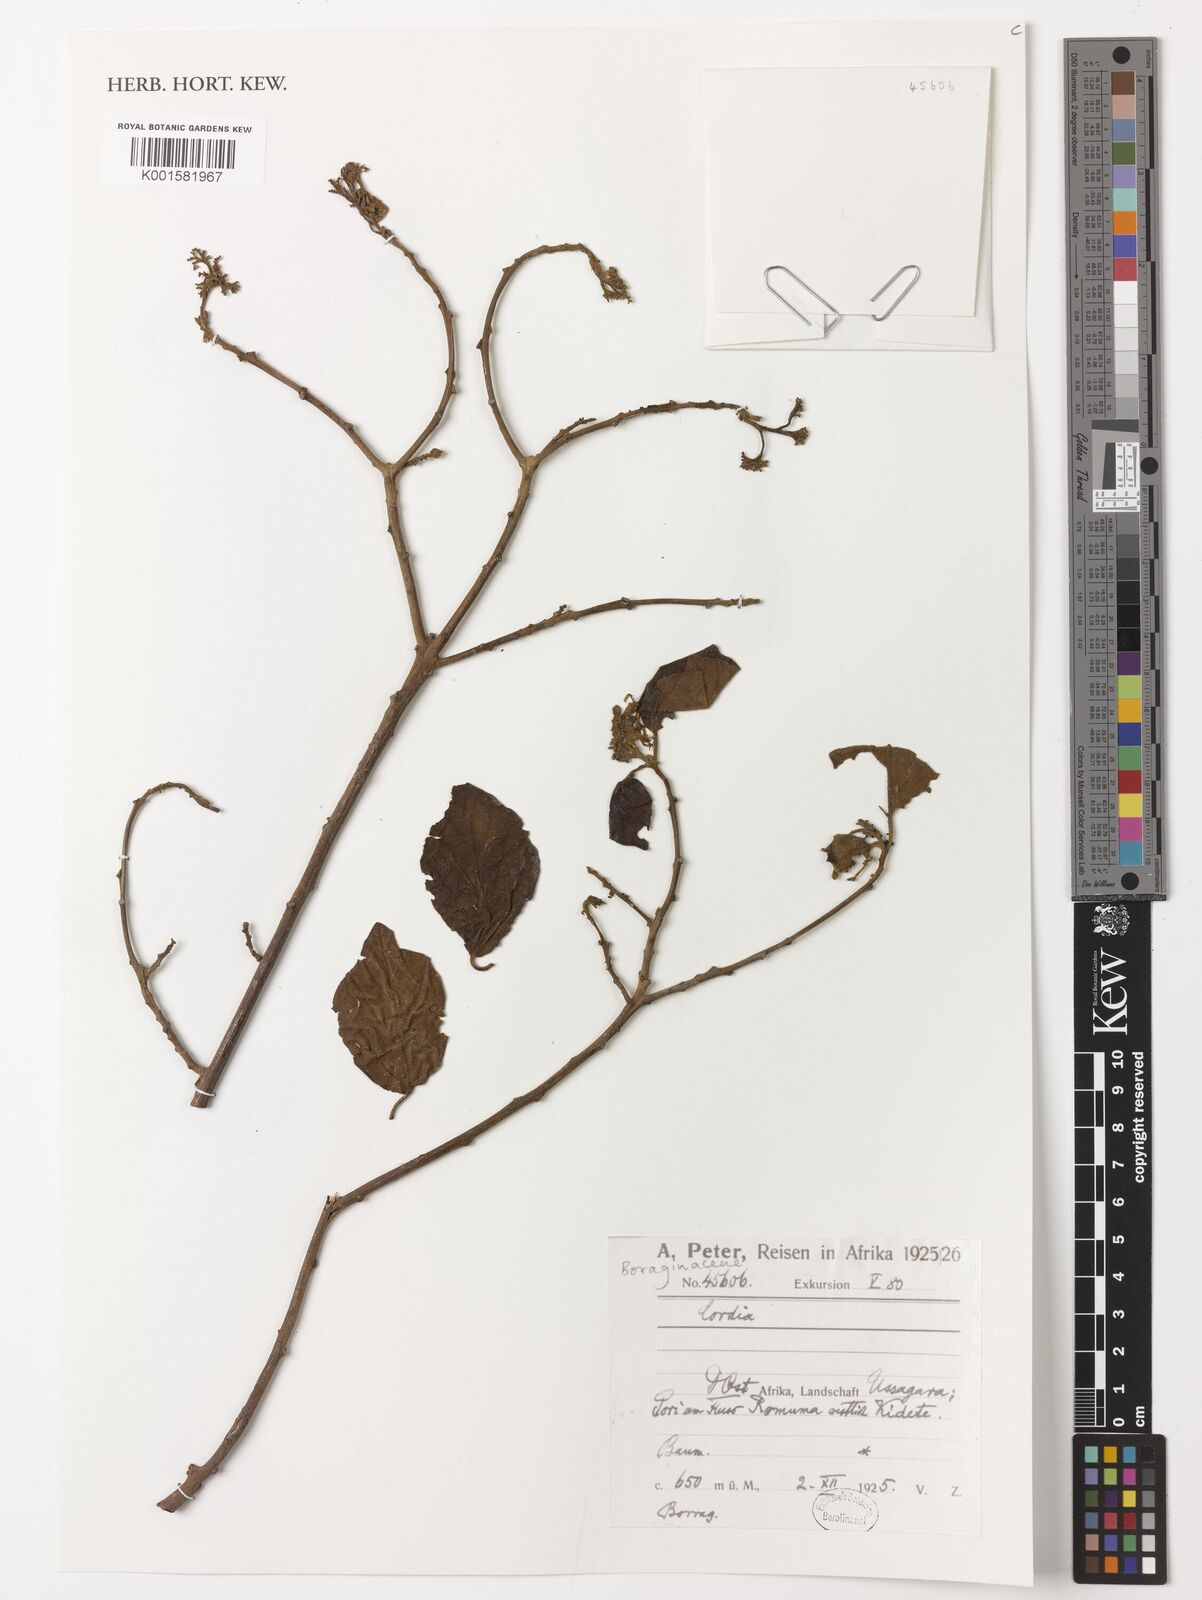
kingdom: Plantae
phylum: Tracheophyta
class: Magnoliopsida
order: Boraginales
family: Cordiaceae
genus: Cordia
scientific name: Cordia
